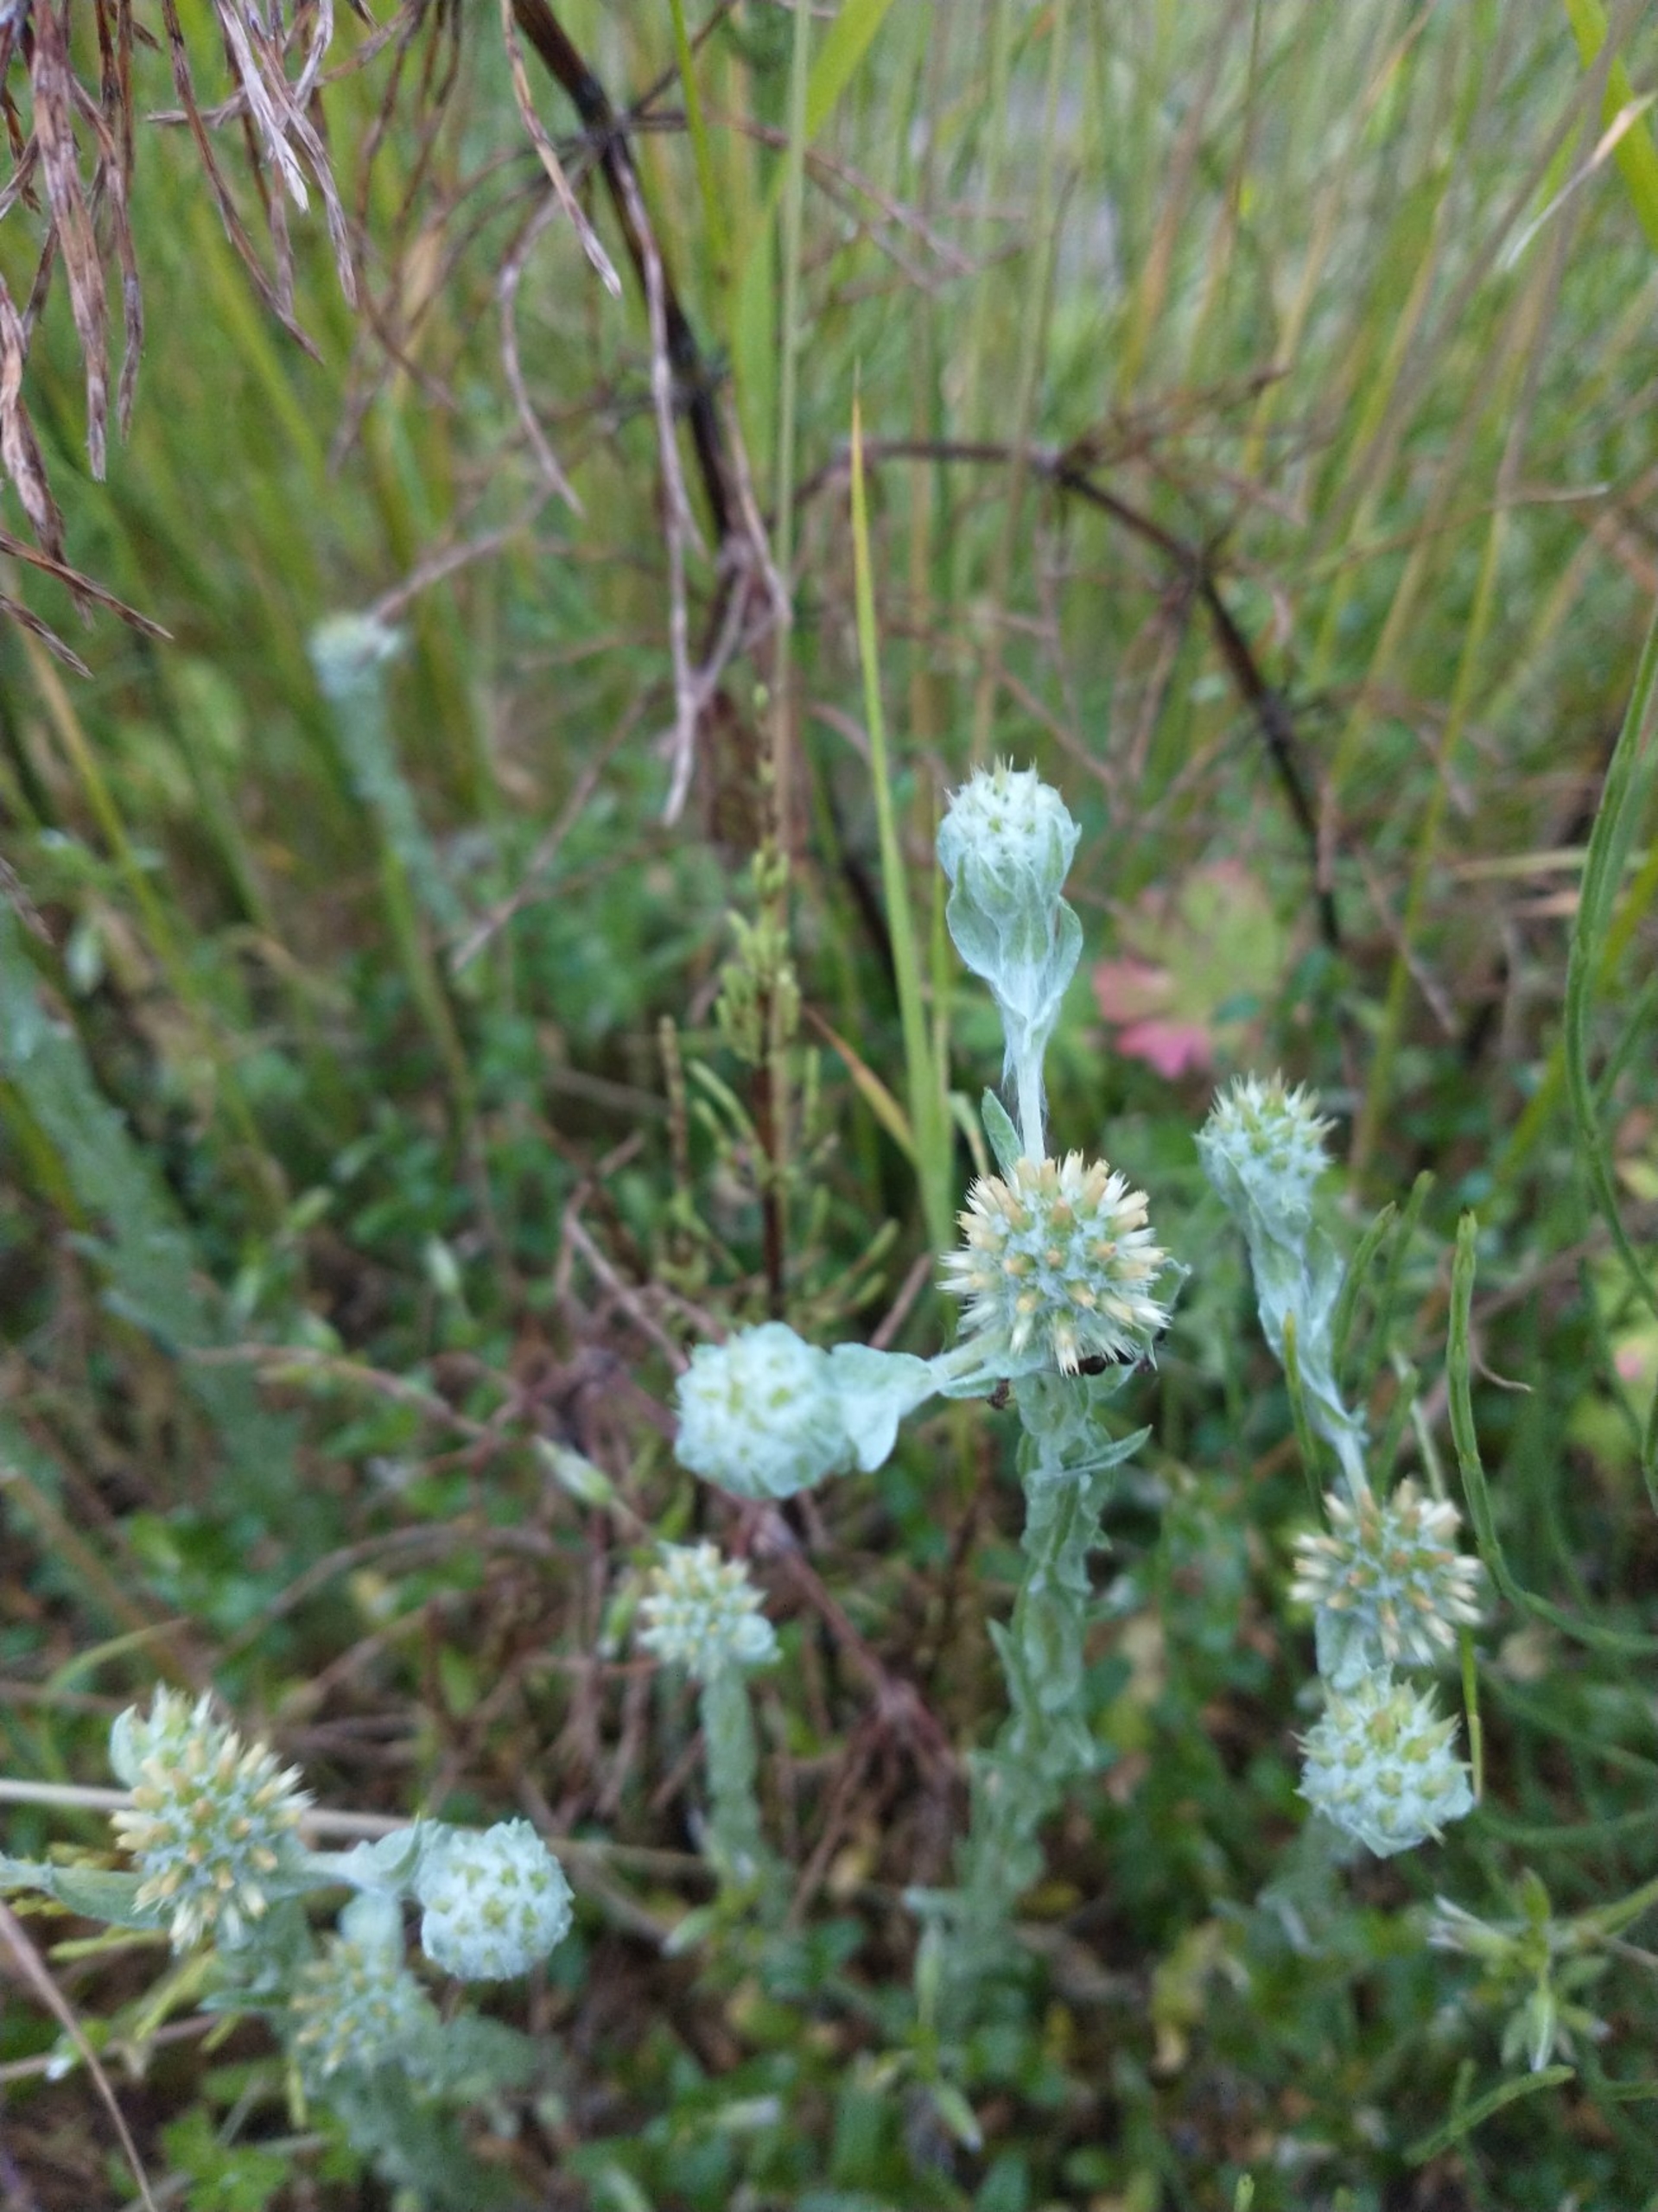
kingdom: Plantae
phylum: Tracheophyta
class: Magnoliopsida
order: Asterales
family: Asteraceae
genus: Filago
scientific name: Filago germanica
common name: Kugle-museurt
